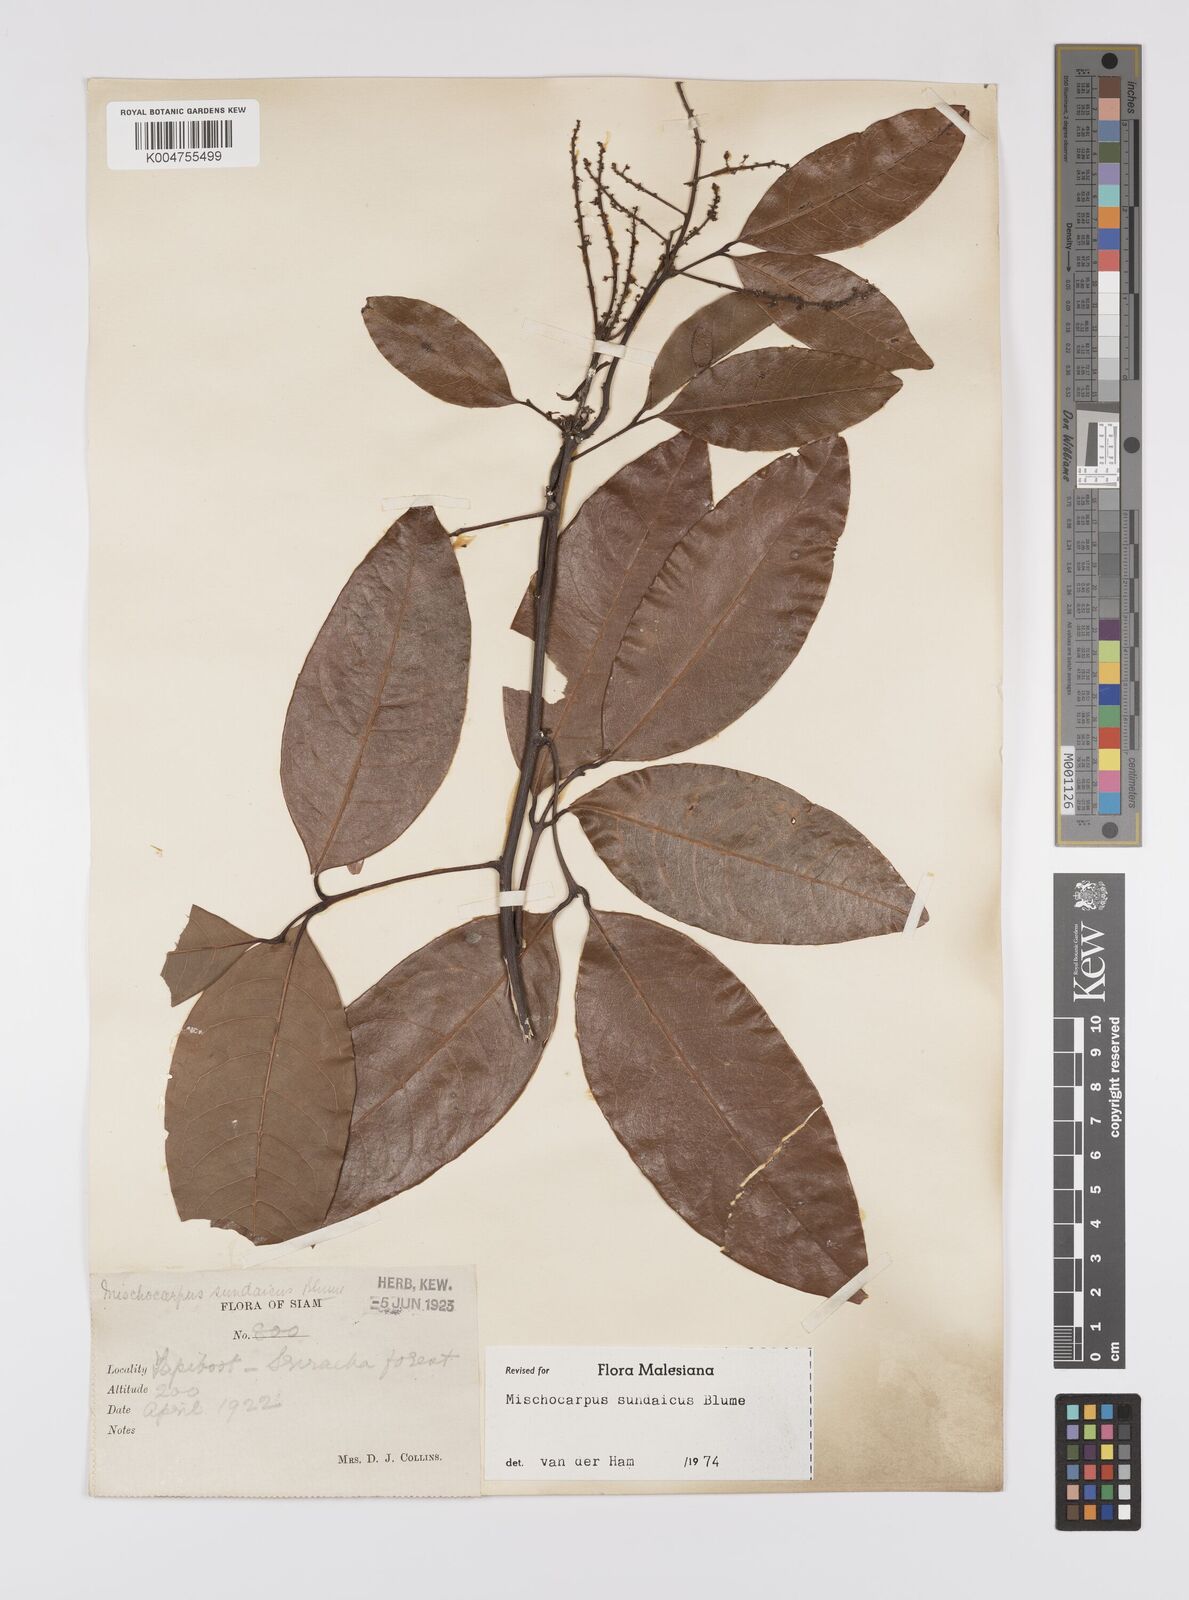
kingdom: Plantae
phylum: Tracheophyta
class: Magnoliopsida
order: Sapindales
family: Sapindaceae
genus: Mischocarpus
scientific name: Mischocarpus sundaicus
